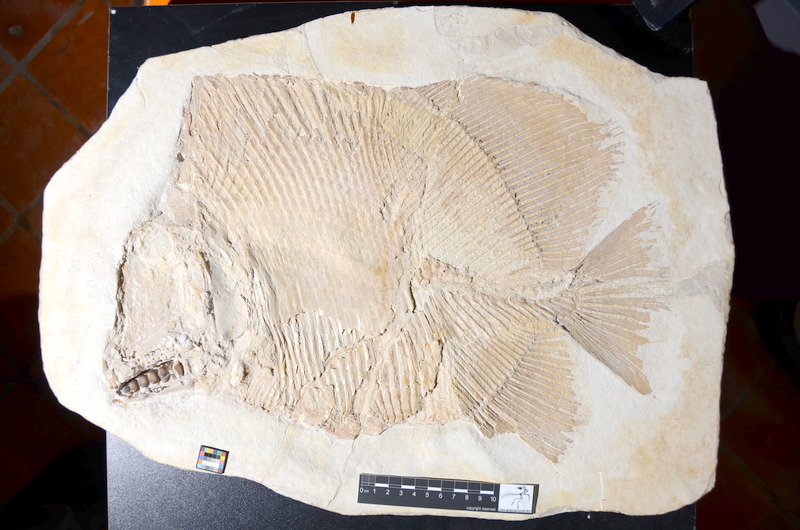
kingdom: Animalia
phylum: Chordata
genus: Apomesodon
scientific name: Apomesodon gibbosus
